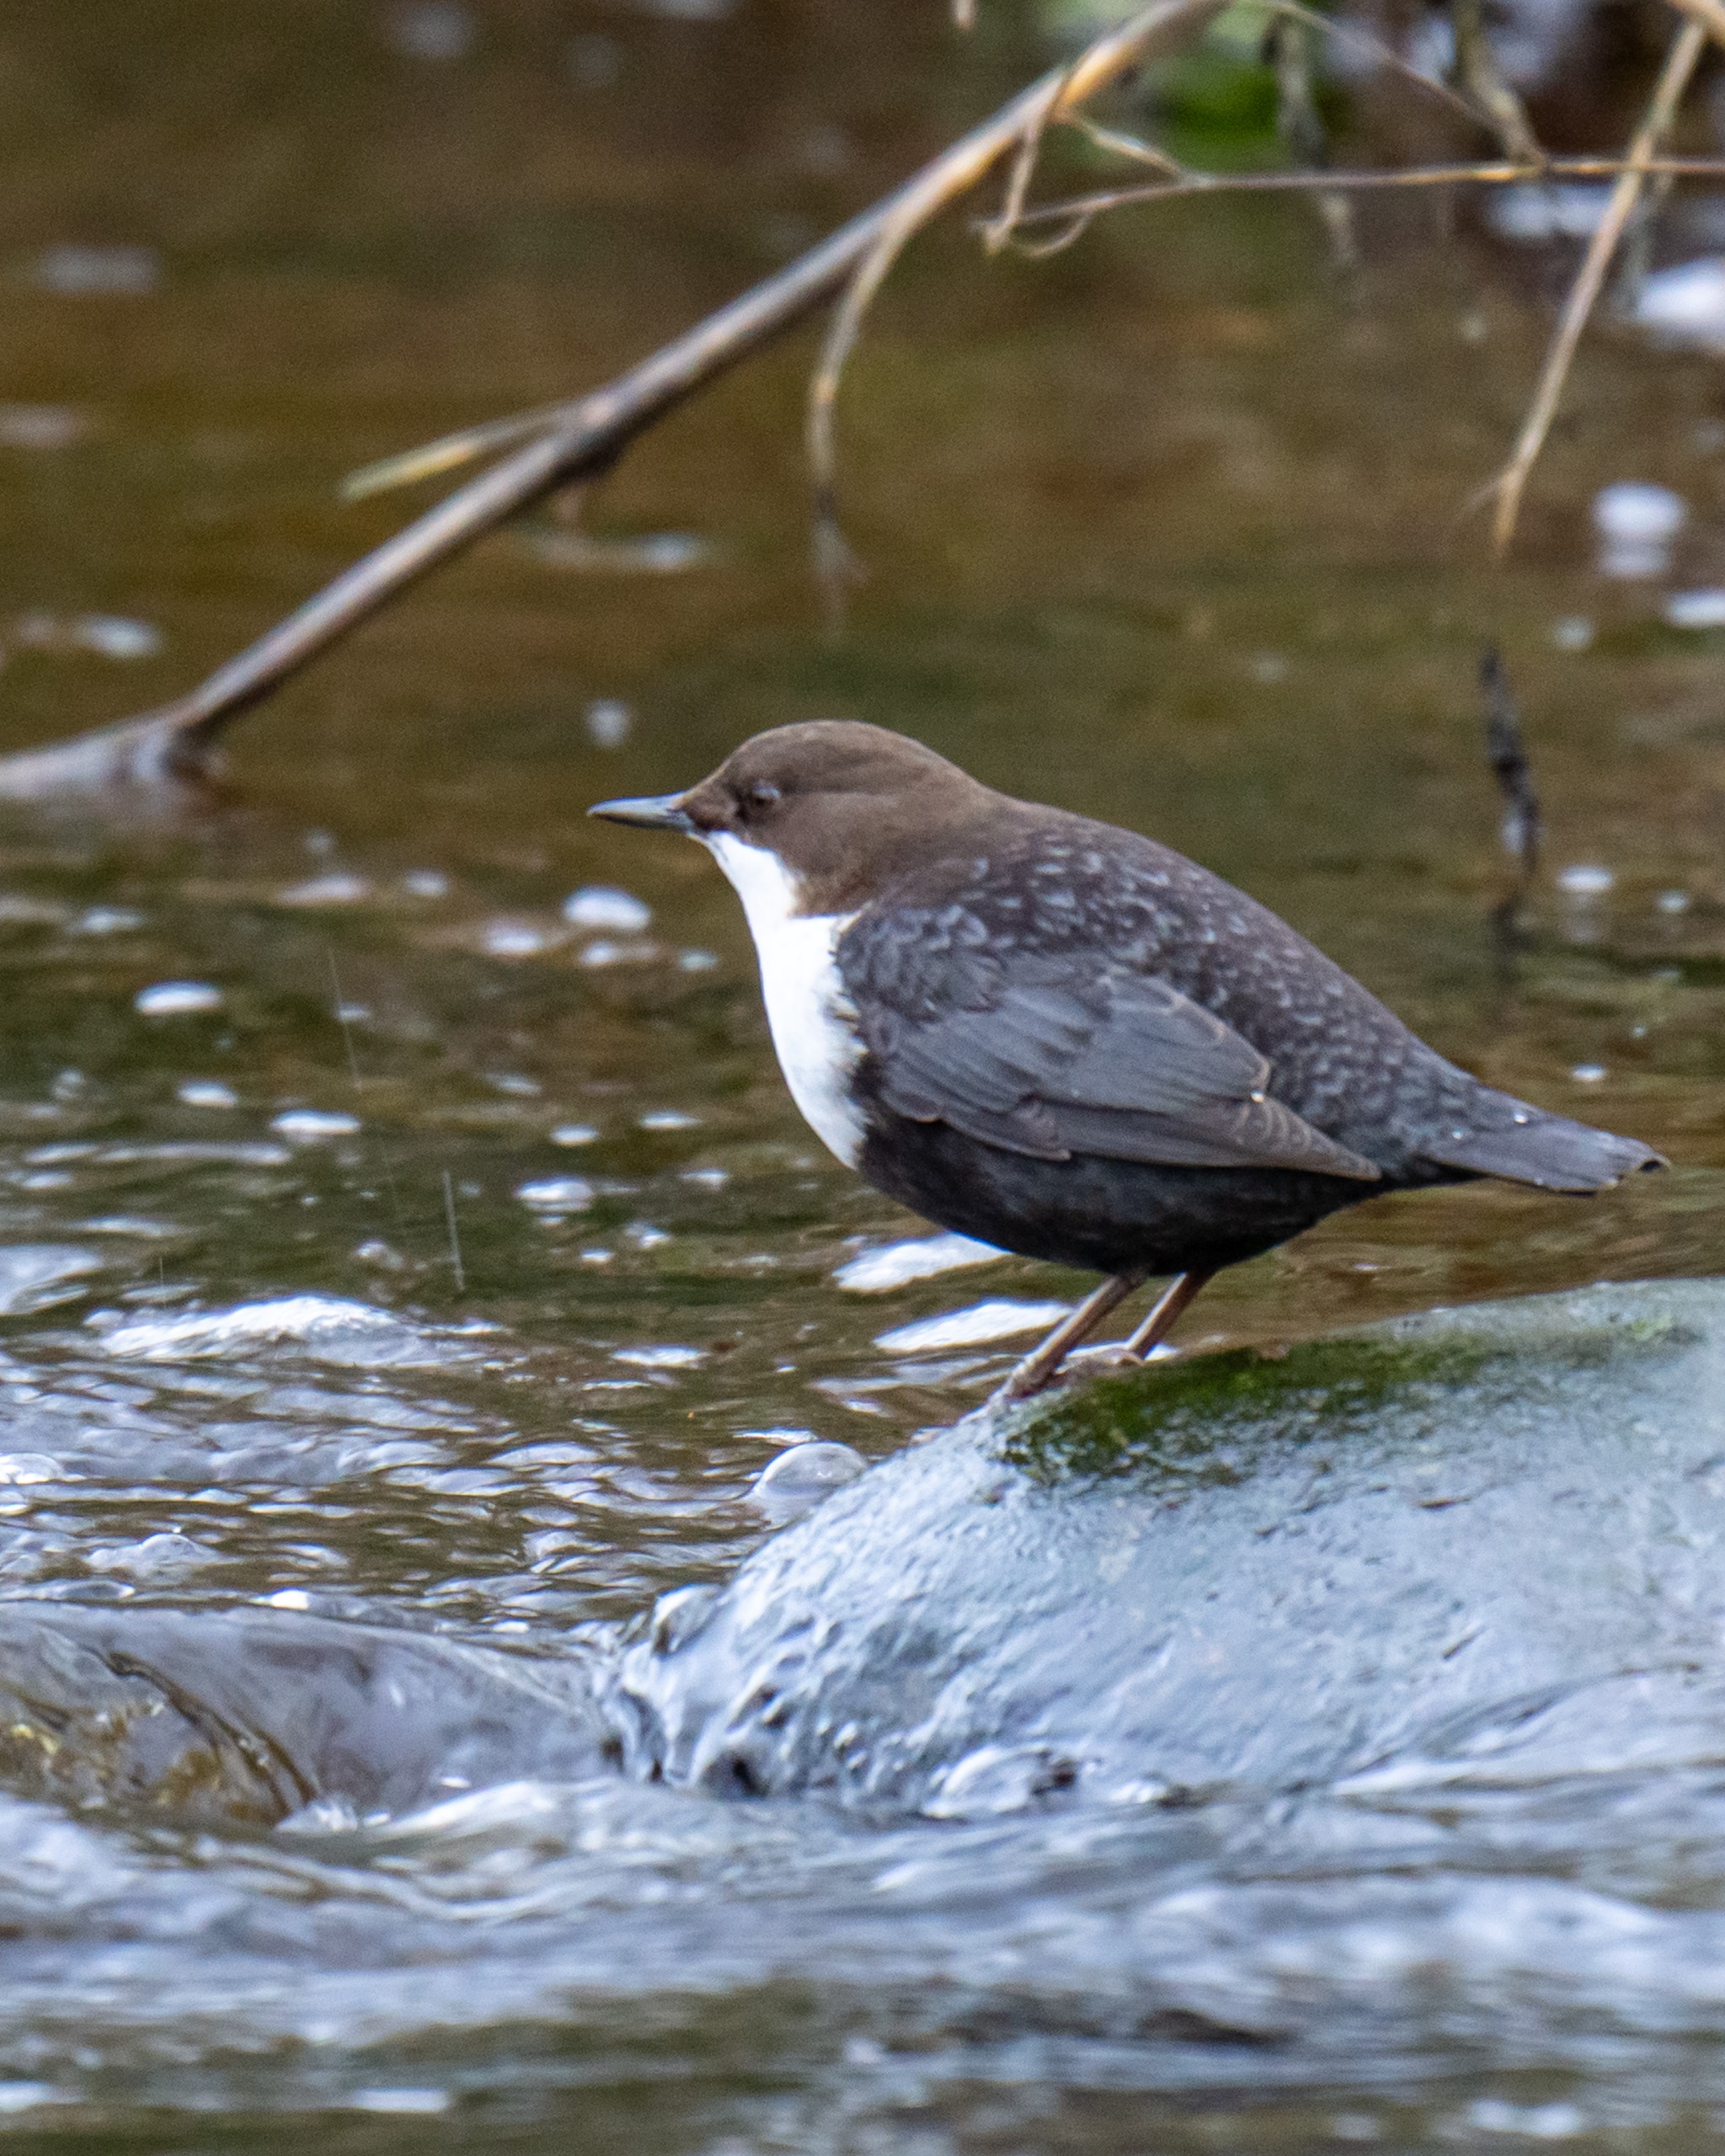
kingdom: Animalia
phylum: Chordata
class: Aves
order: Passeriformes
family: Cinclidae
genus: Cinclus
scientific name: Cinclus cinclus
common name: Vandstær
